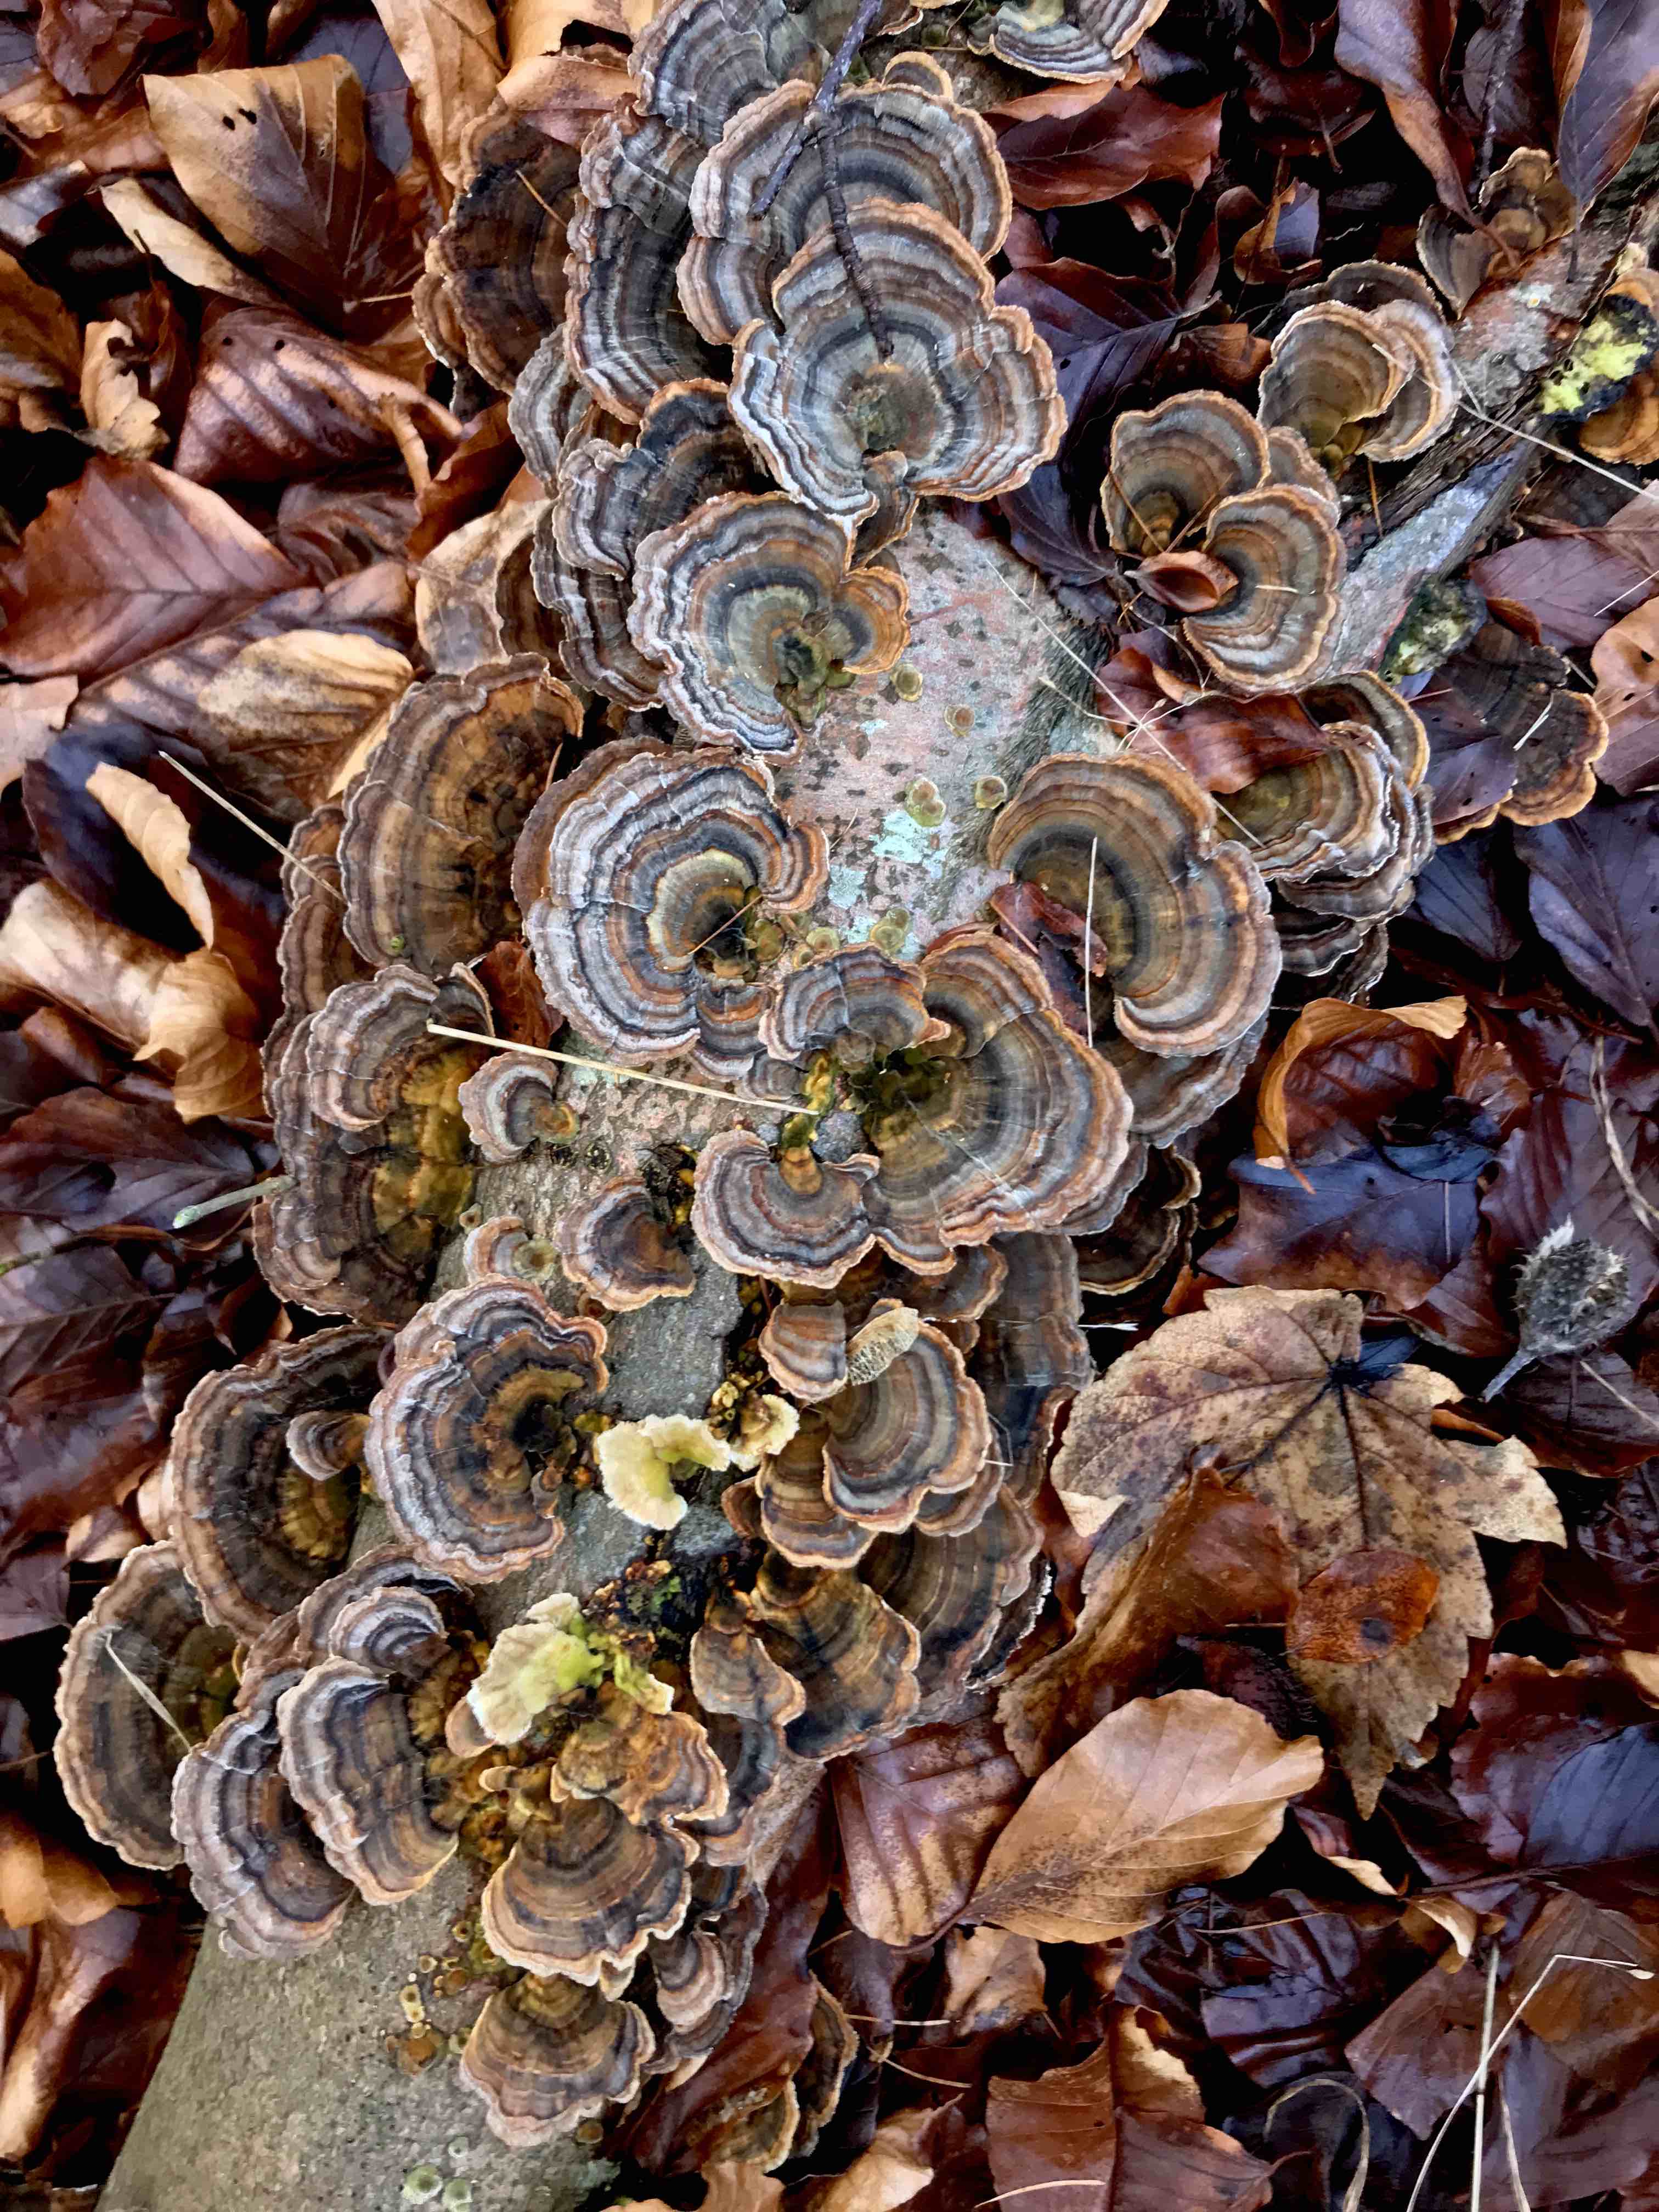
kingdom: Fungi
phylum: Basidiomycota
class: Agaricomycetes
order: Polyporales
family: Polyporaceae
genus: Trametes
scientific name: Trametes versicolor
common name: broget læderporesvamp
